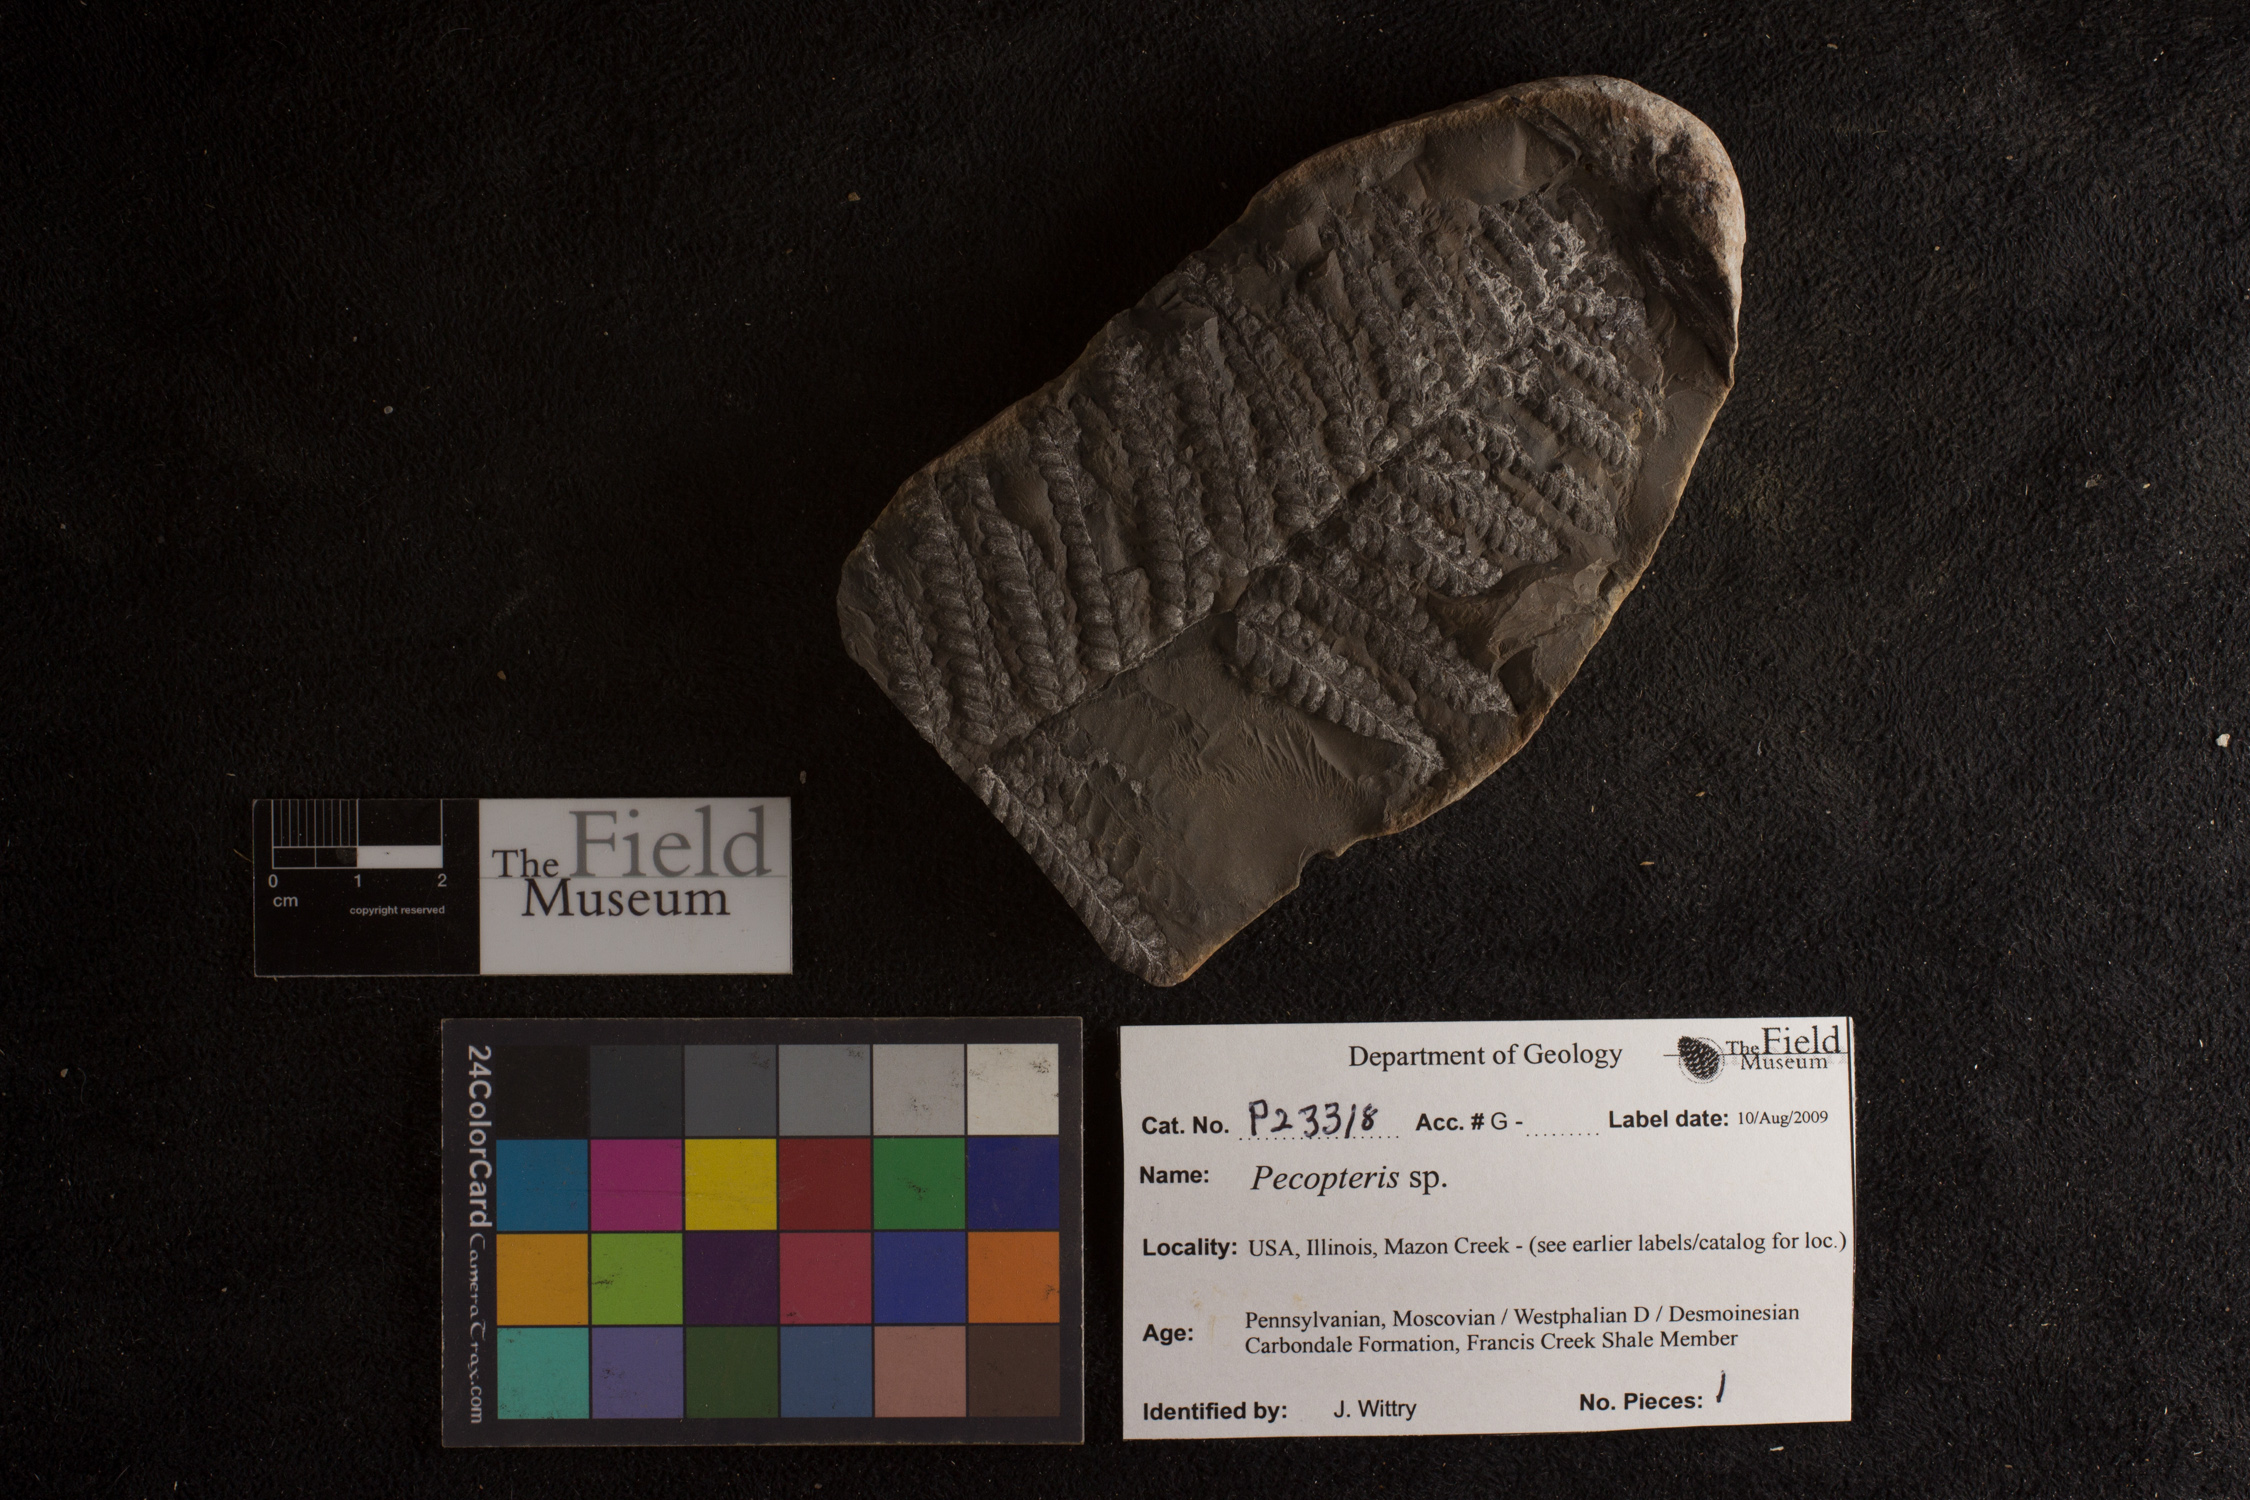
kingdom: Plantae
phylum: Tracheophyta
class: Polypodiopsida
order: Marattiales
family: Asterothecaceae
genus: Pecopteris
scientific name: Pecopteris
